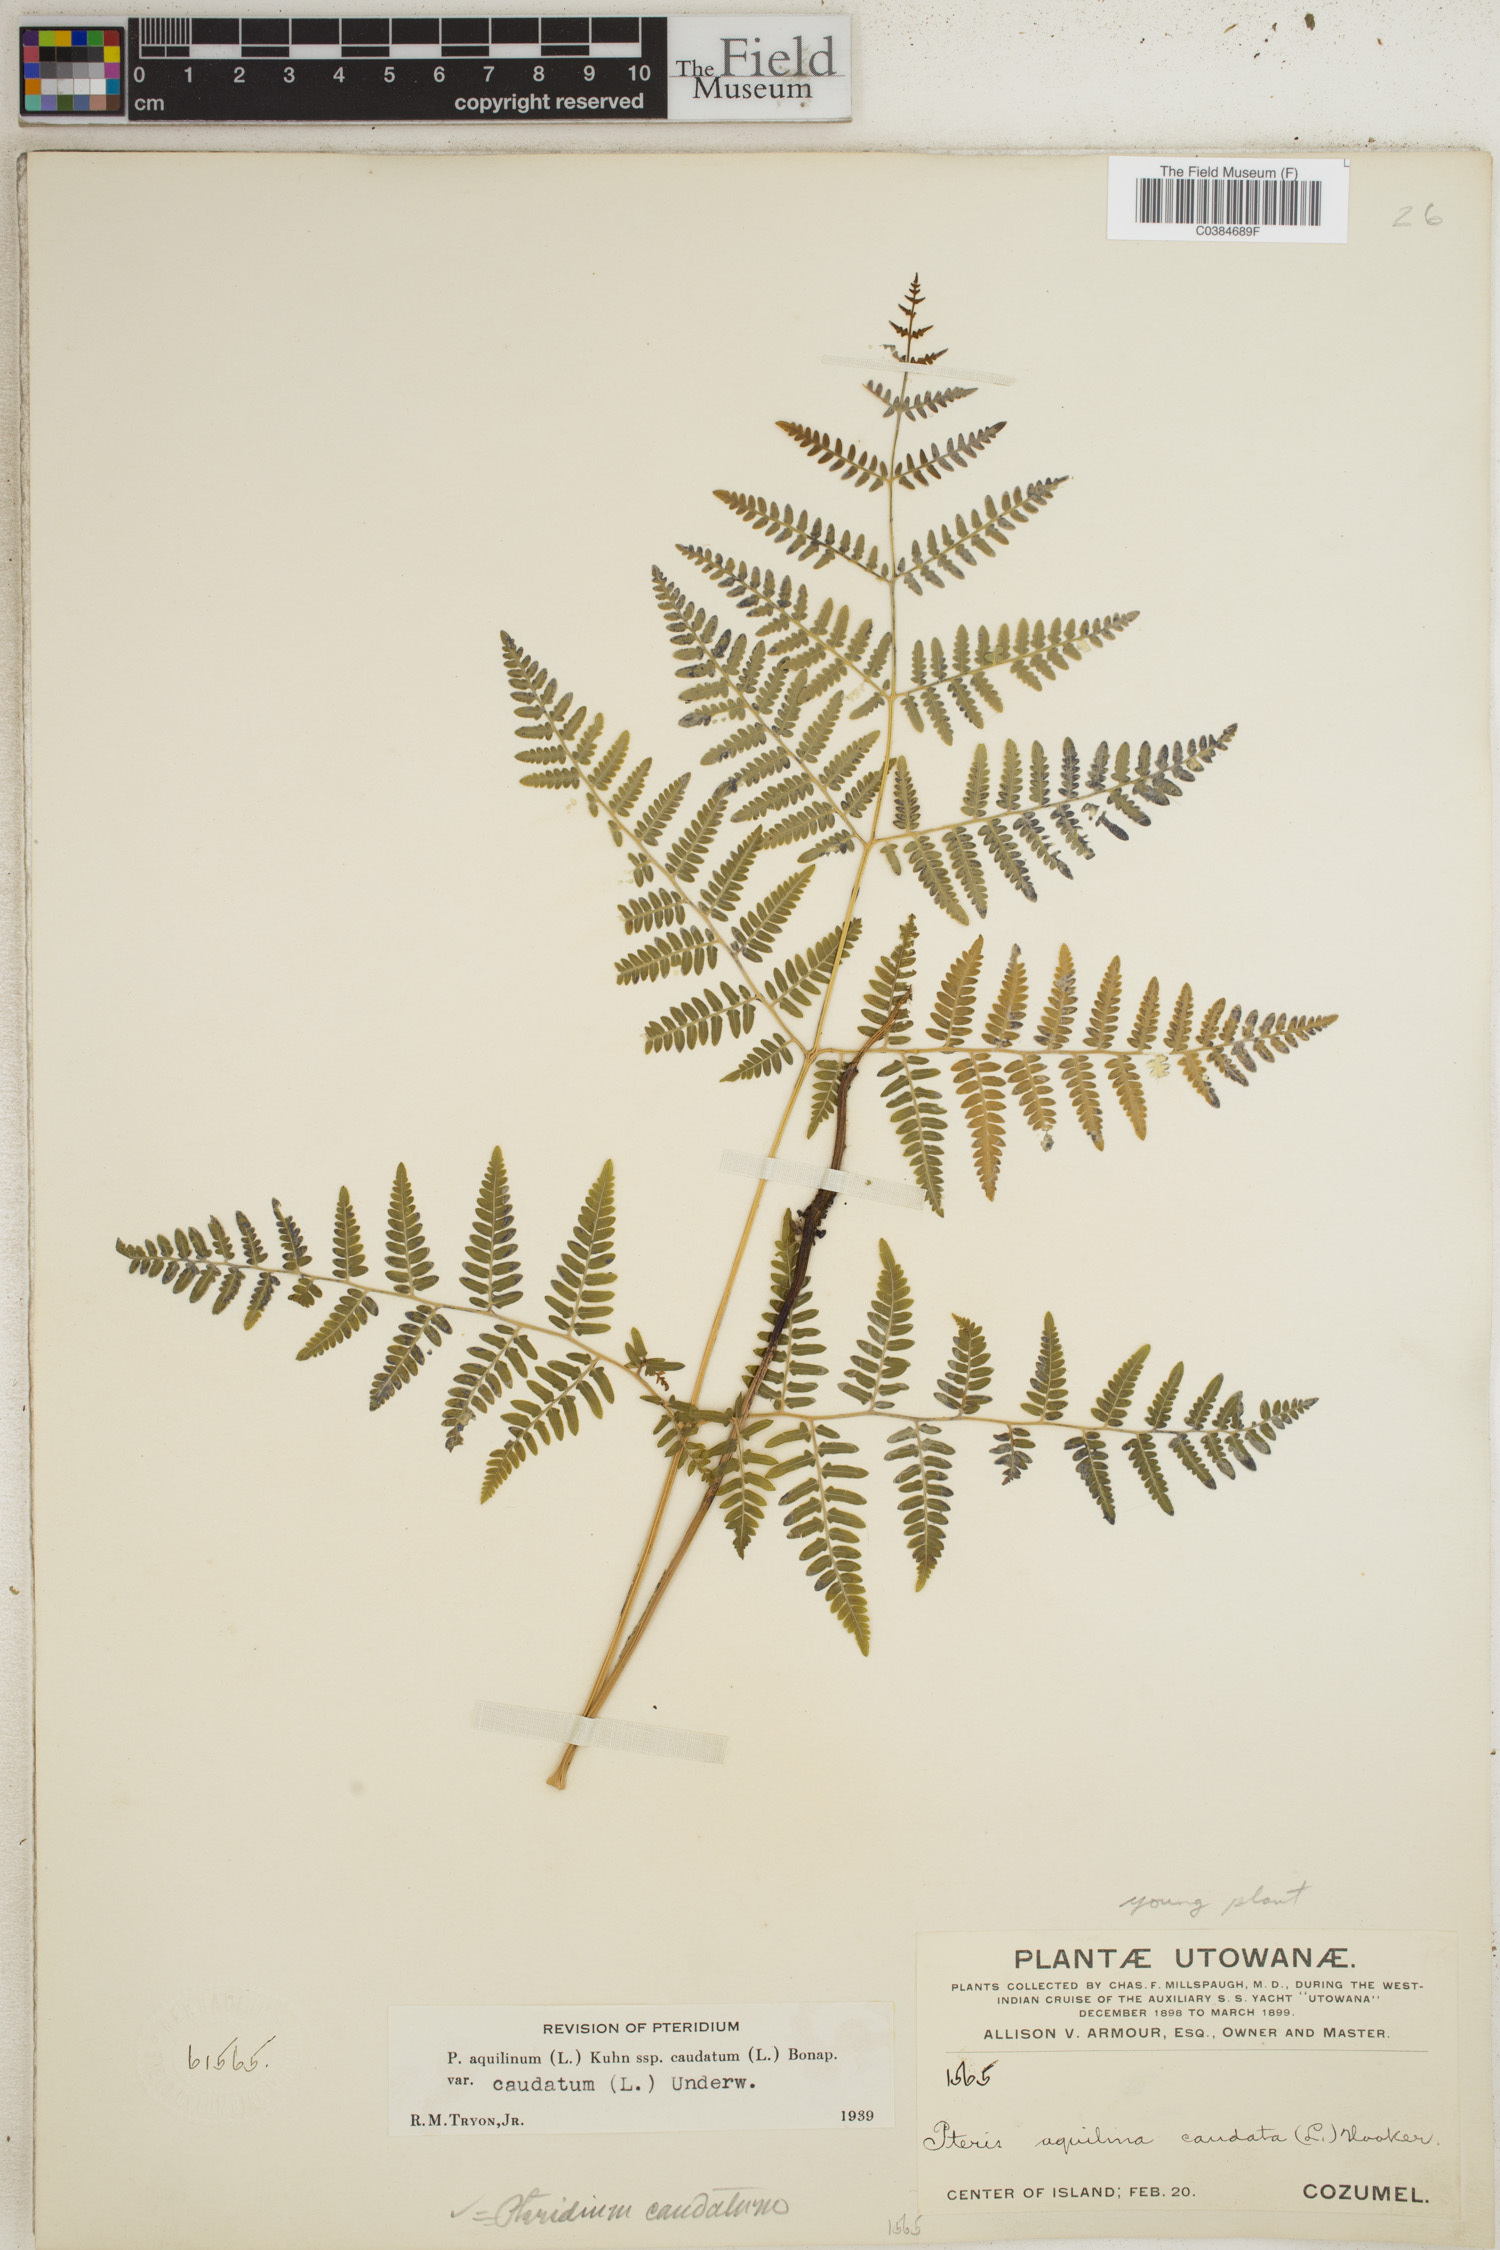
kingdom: Plantae
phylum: Tracheophyta
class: Polypodiopsida
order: Polypodiales
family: Dennstaedtiaceae
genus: Pteridium
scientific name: Pteridium caudatum
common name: Southern bracken fern
